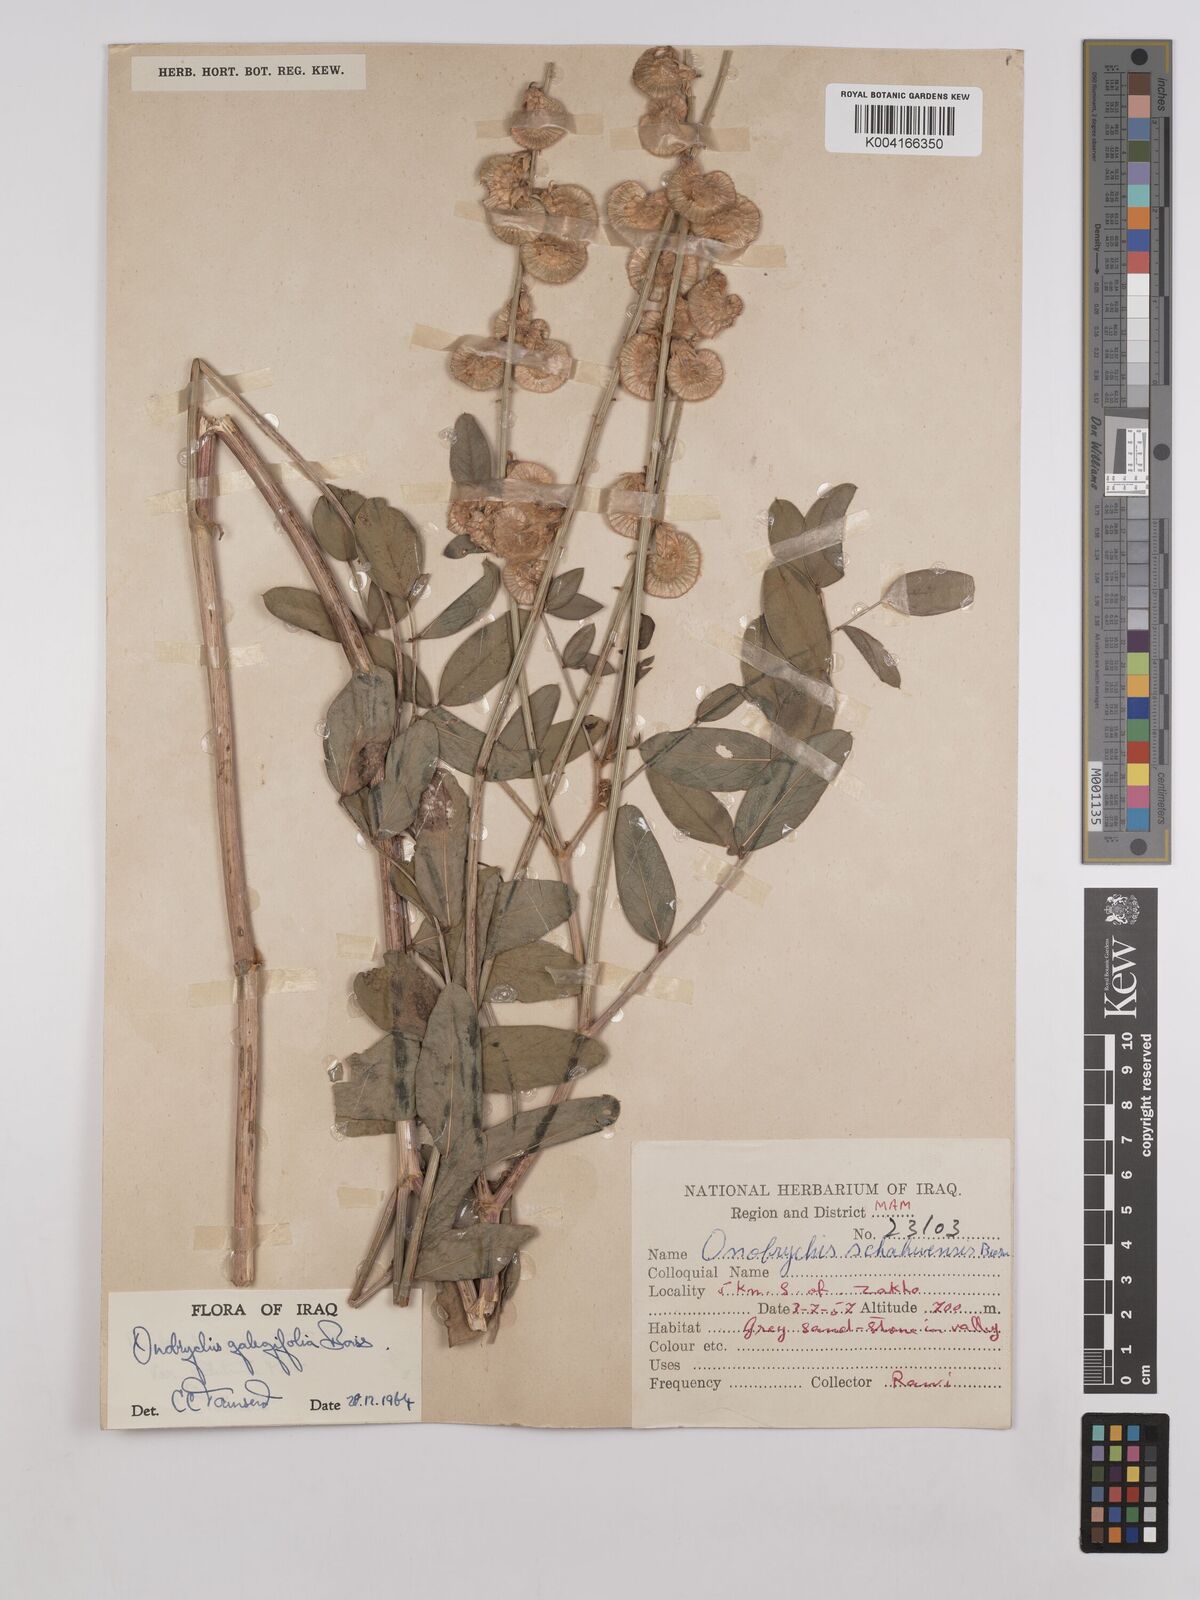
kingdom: Plantae
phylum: Tracheophyta
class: Magnoliopsida
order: Fabales
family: Fabaceae
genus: Onobrychis
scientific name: Onobrychis galegifolia
